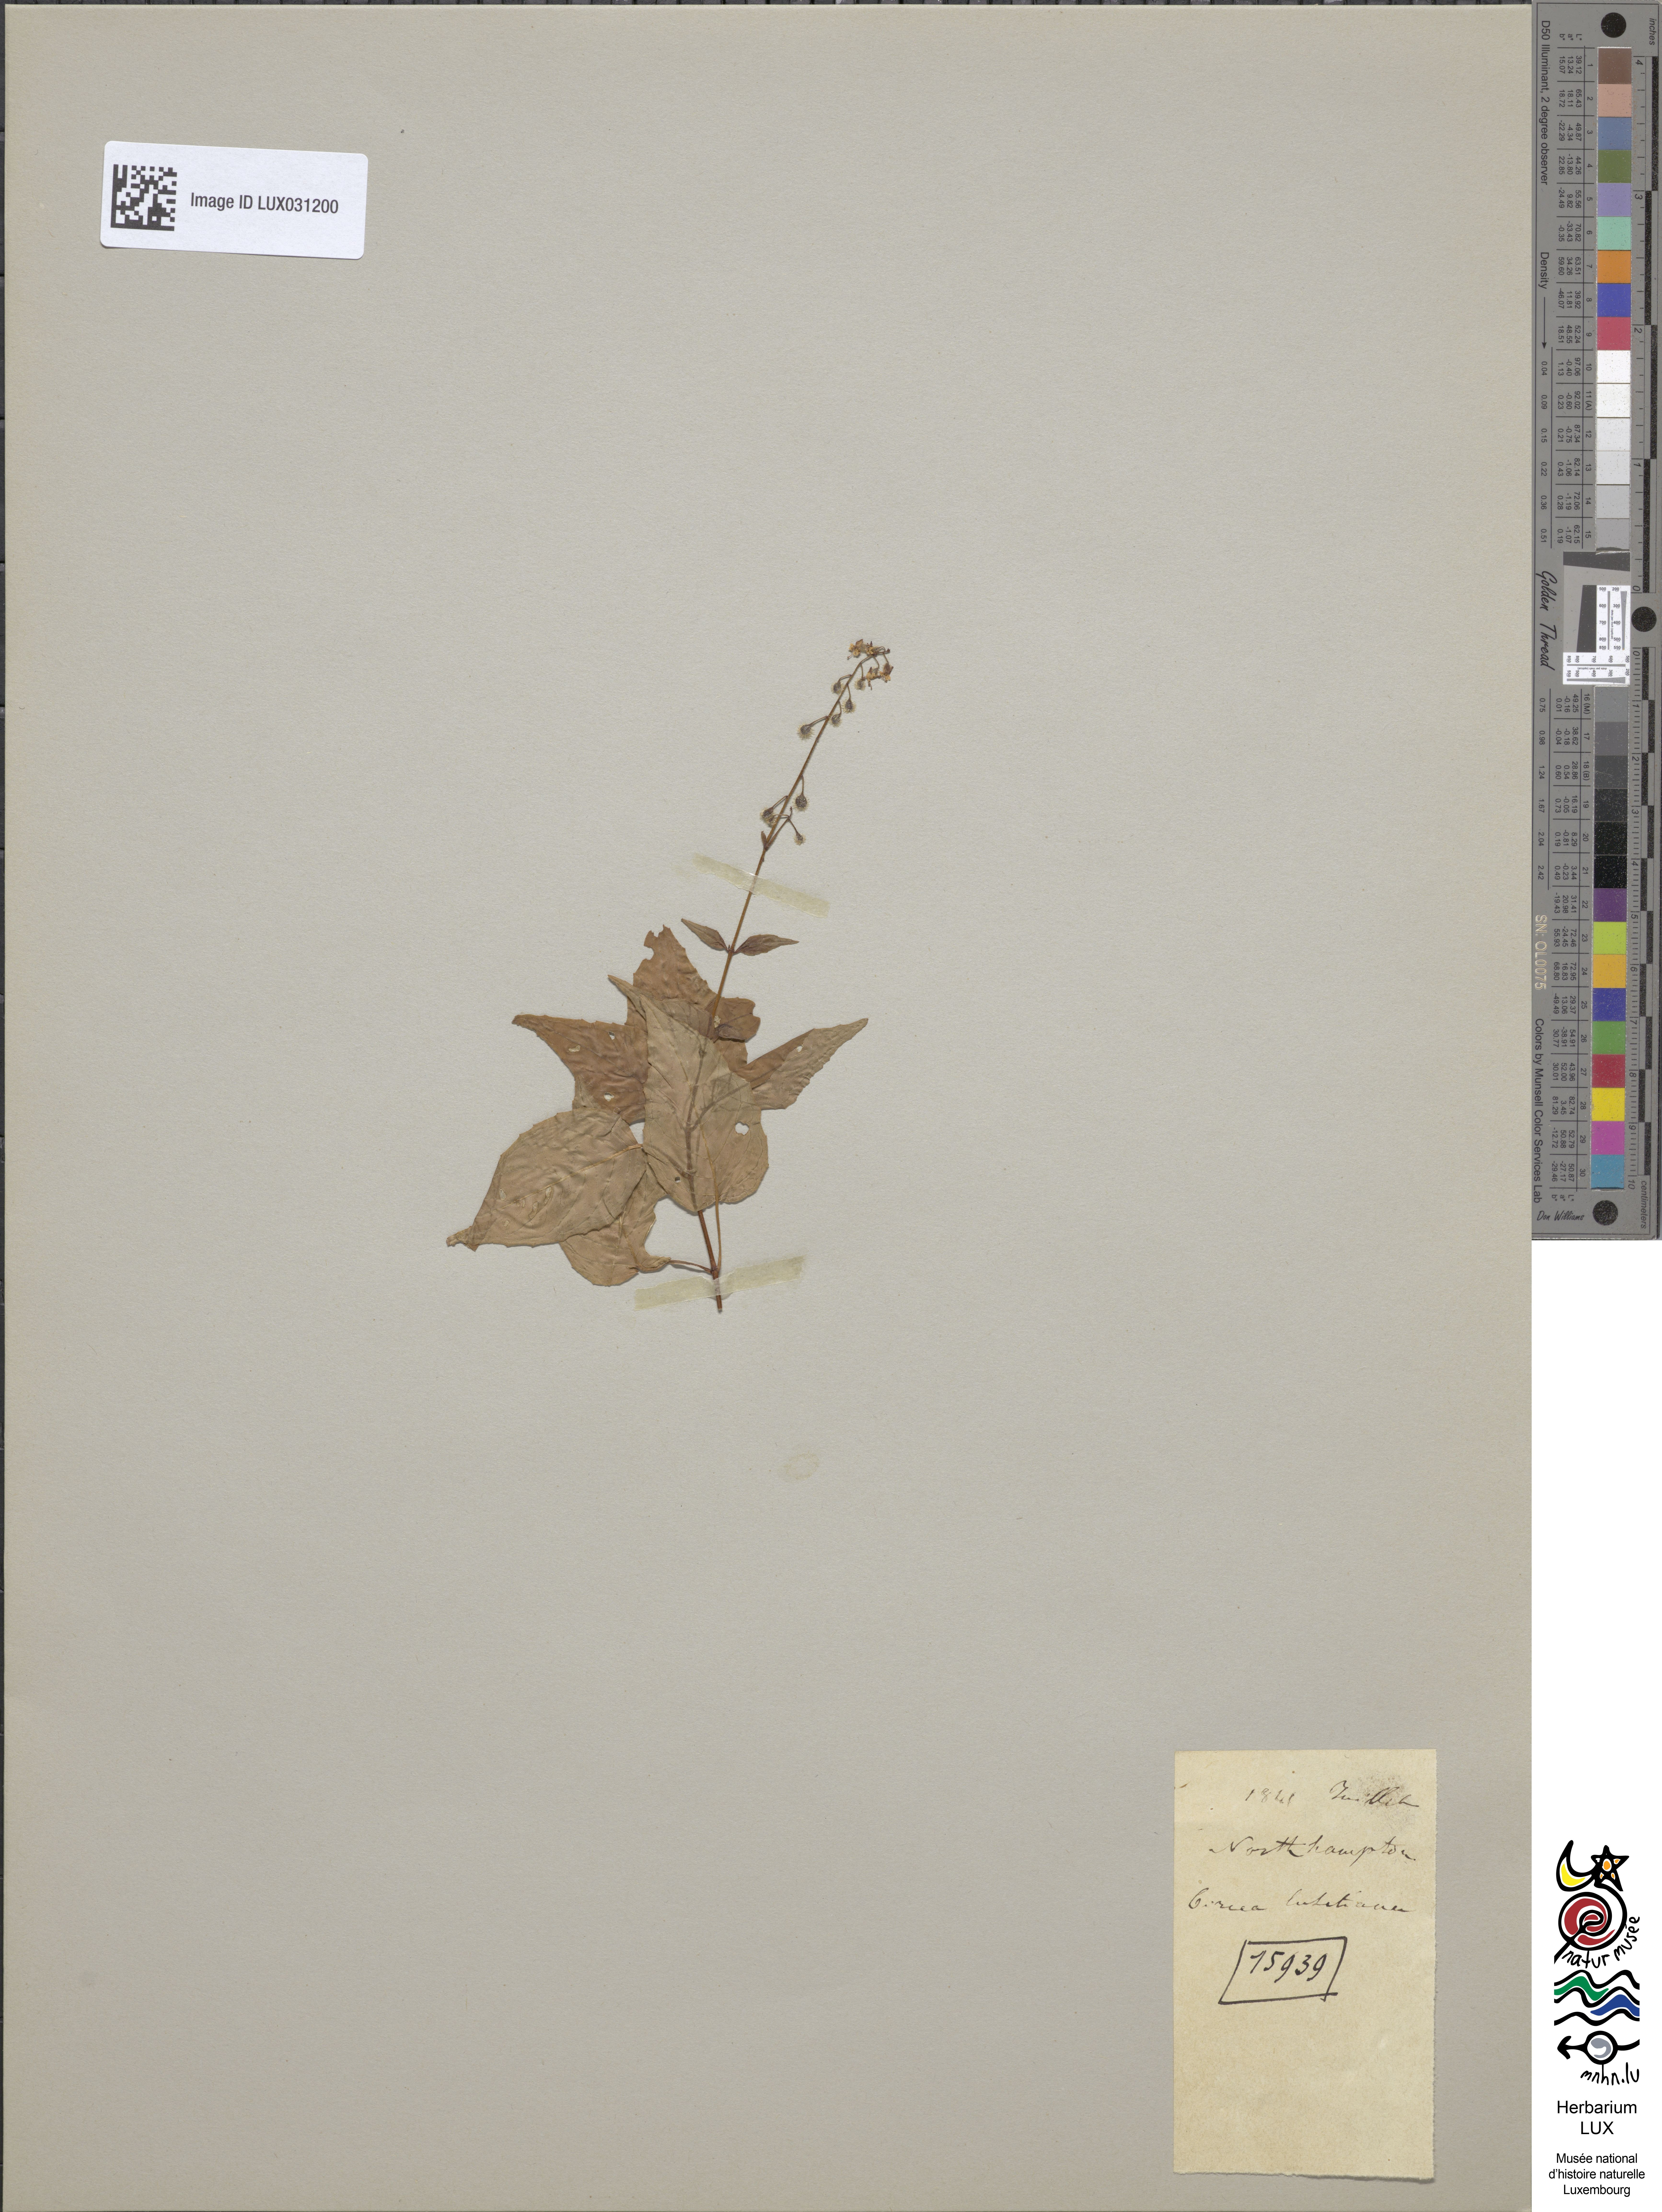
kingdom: Plantae
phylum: Tracheophyta
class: Magnoliopsida
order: Myrtales
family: Onagraceae
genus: Circaea
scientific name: Circaea lutetiana
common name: Enchanter's-nightshade
